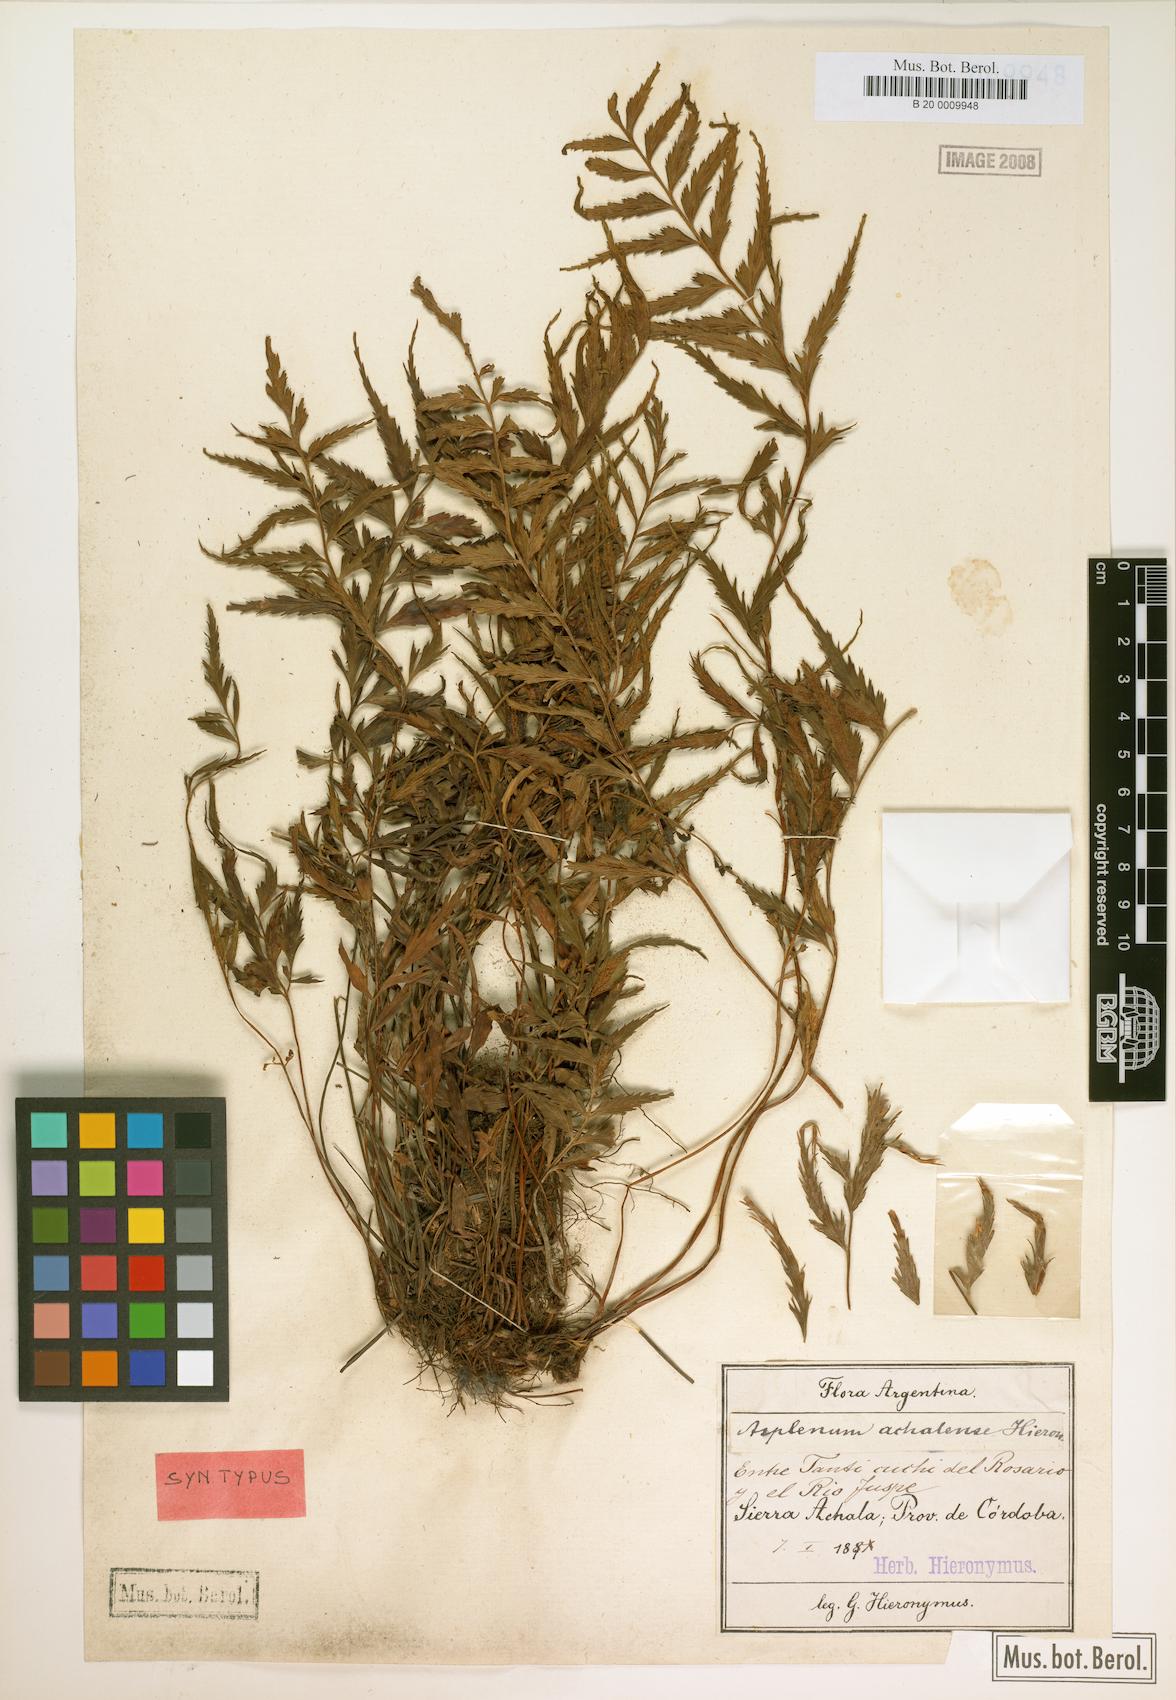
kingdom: Plantae
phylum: Tracheophyta
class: Polypodiopsida
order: Polypodiales
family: Aspleniaceae
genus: Asplenium
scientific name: Asplenium achalense
